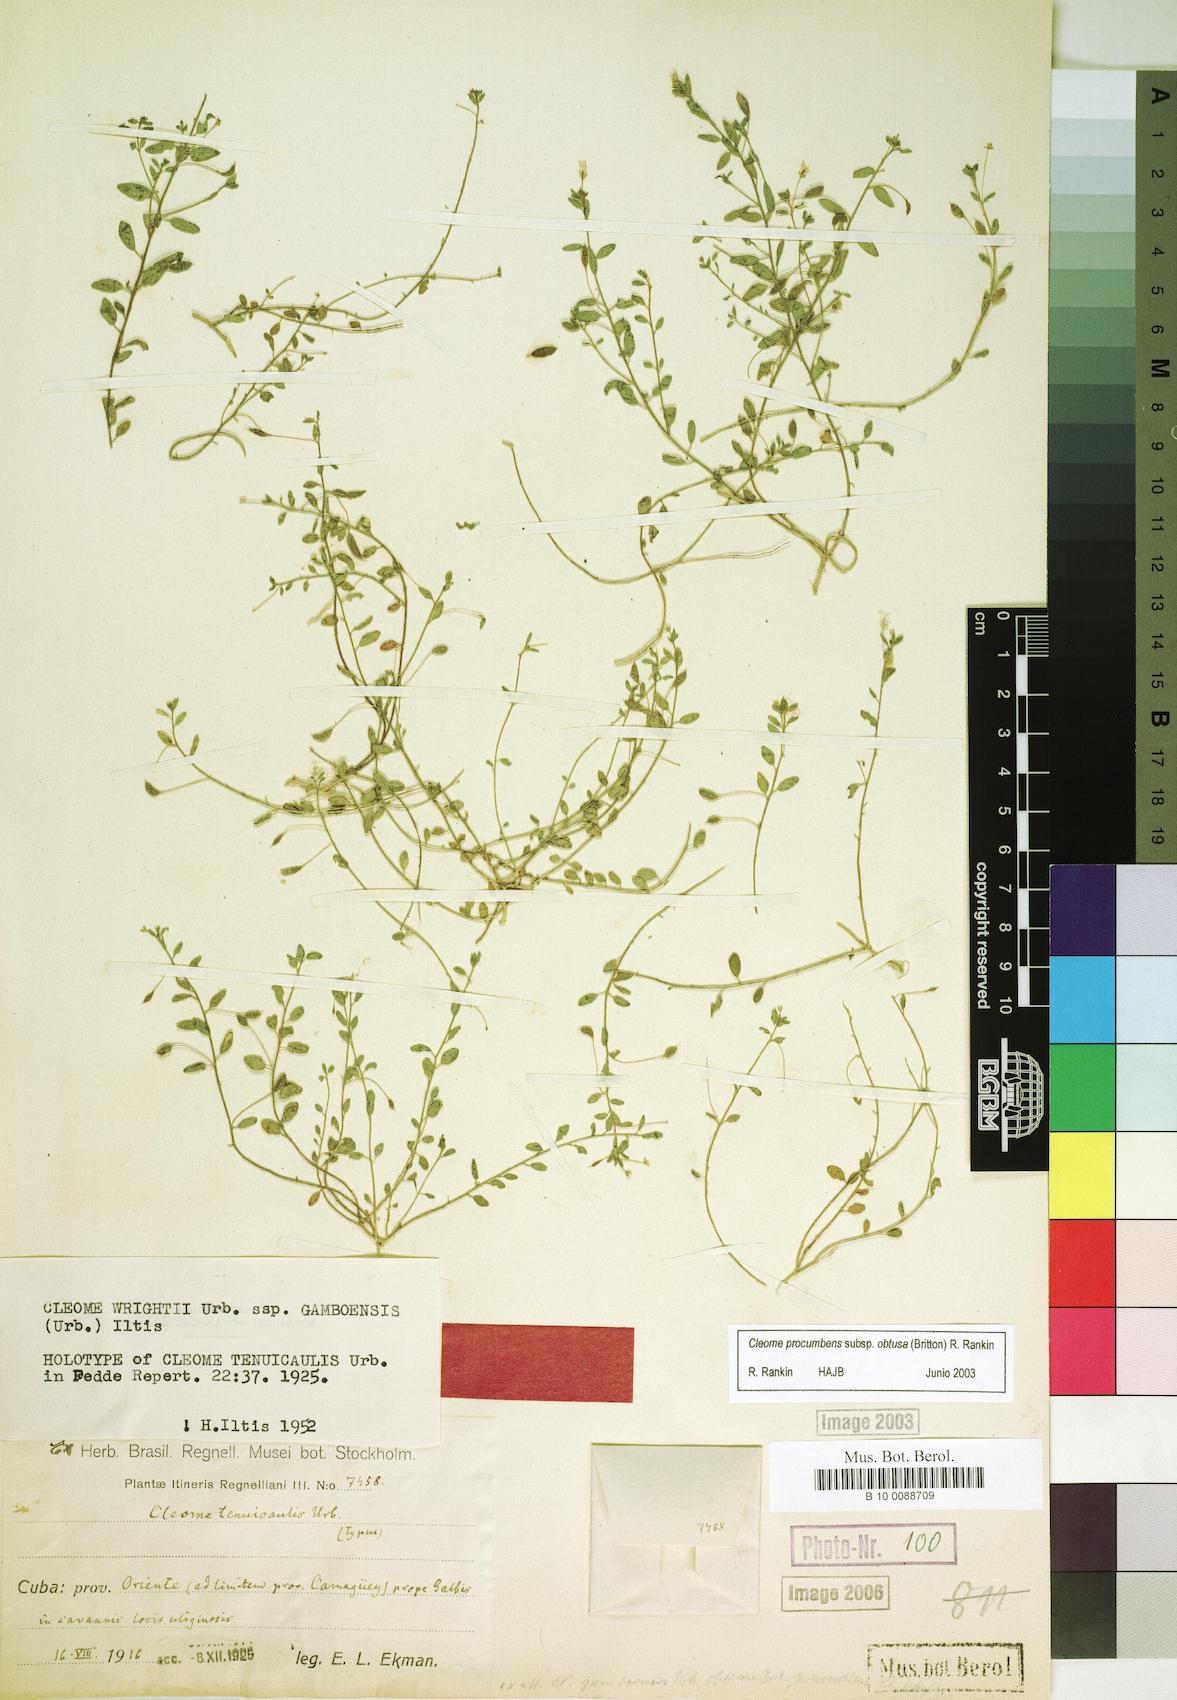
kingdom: Plantae
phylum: Tracheophyta
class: Magnoliopsida
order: Brassicales
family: Cleomaceae
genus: Physostemon
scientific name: Physostemon procumbens
